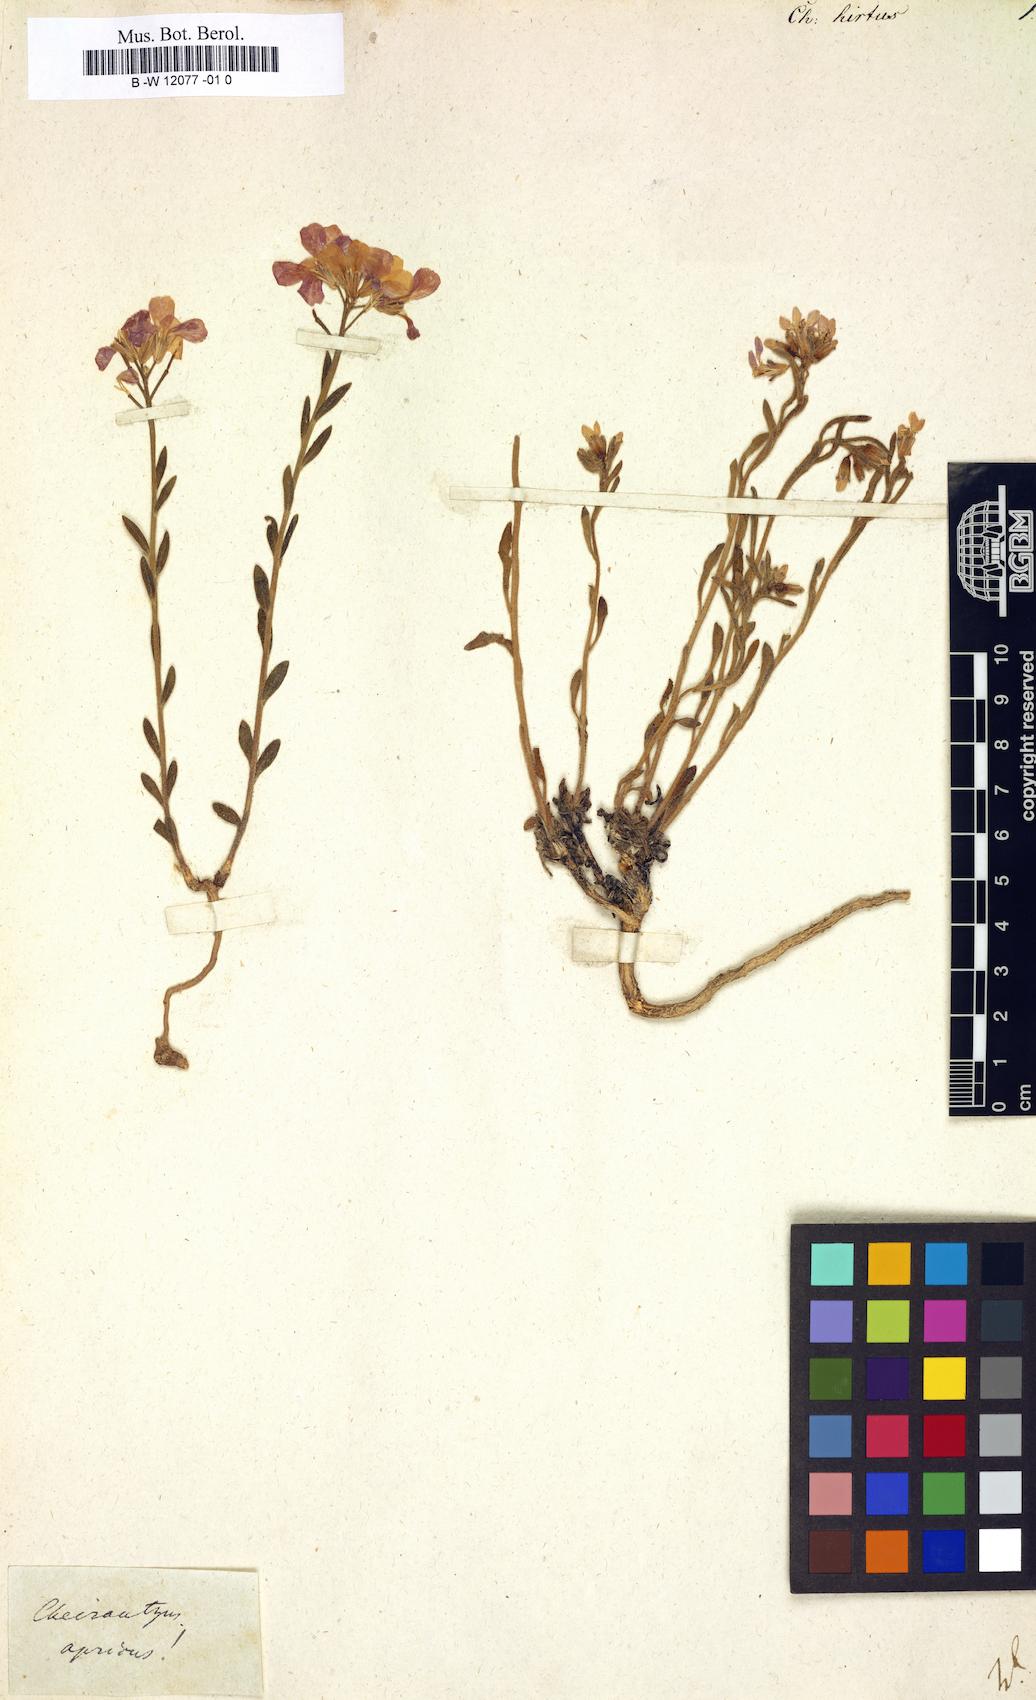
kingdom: Plantae
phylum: Tracheophyta
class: Magnoliopsida
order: Brassicales
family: Brassicaceae
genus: Clausia
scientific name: Clausia aprica
